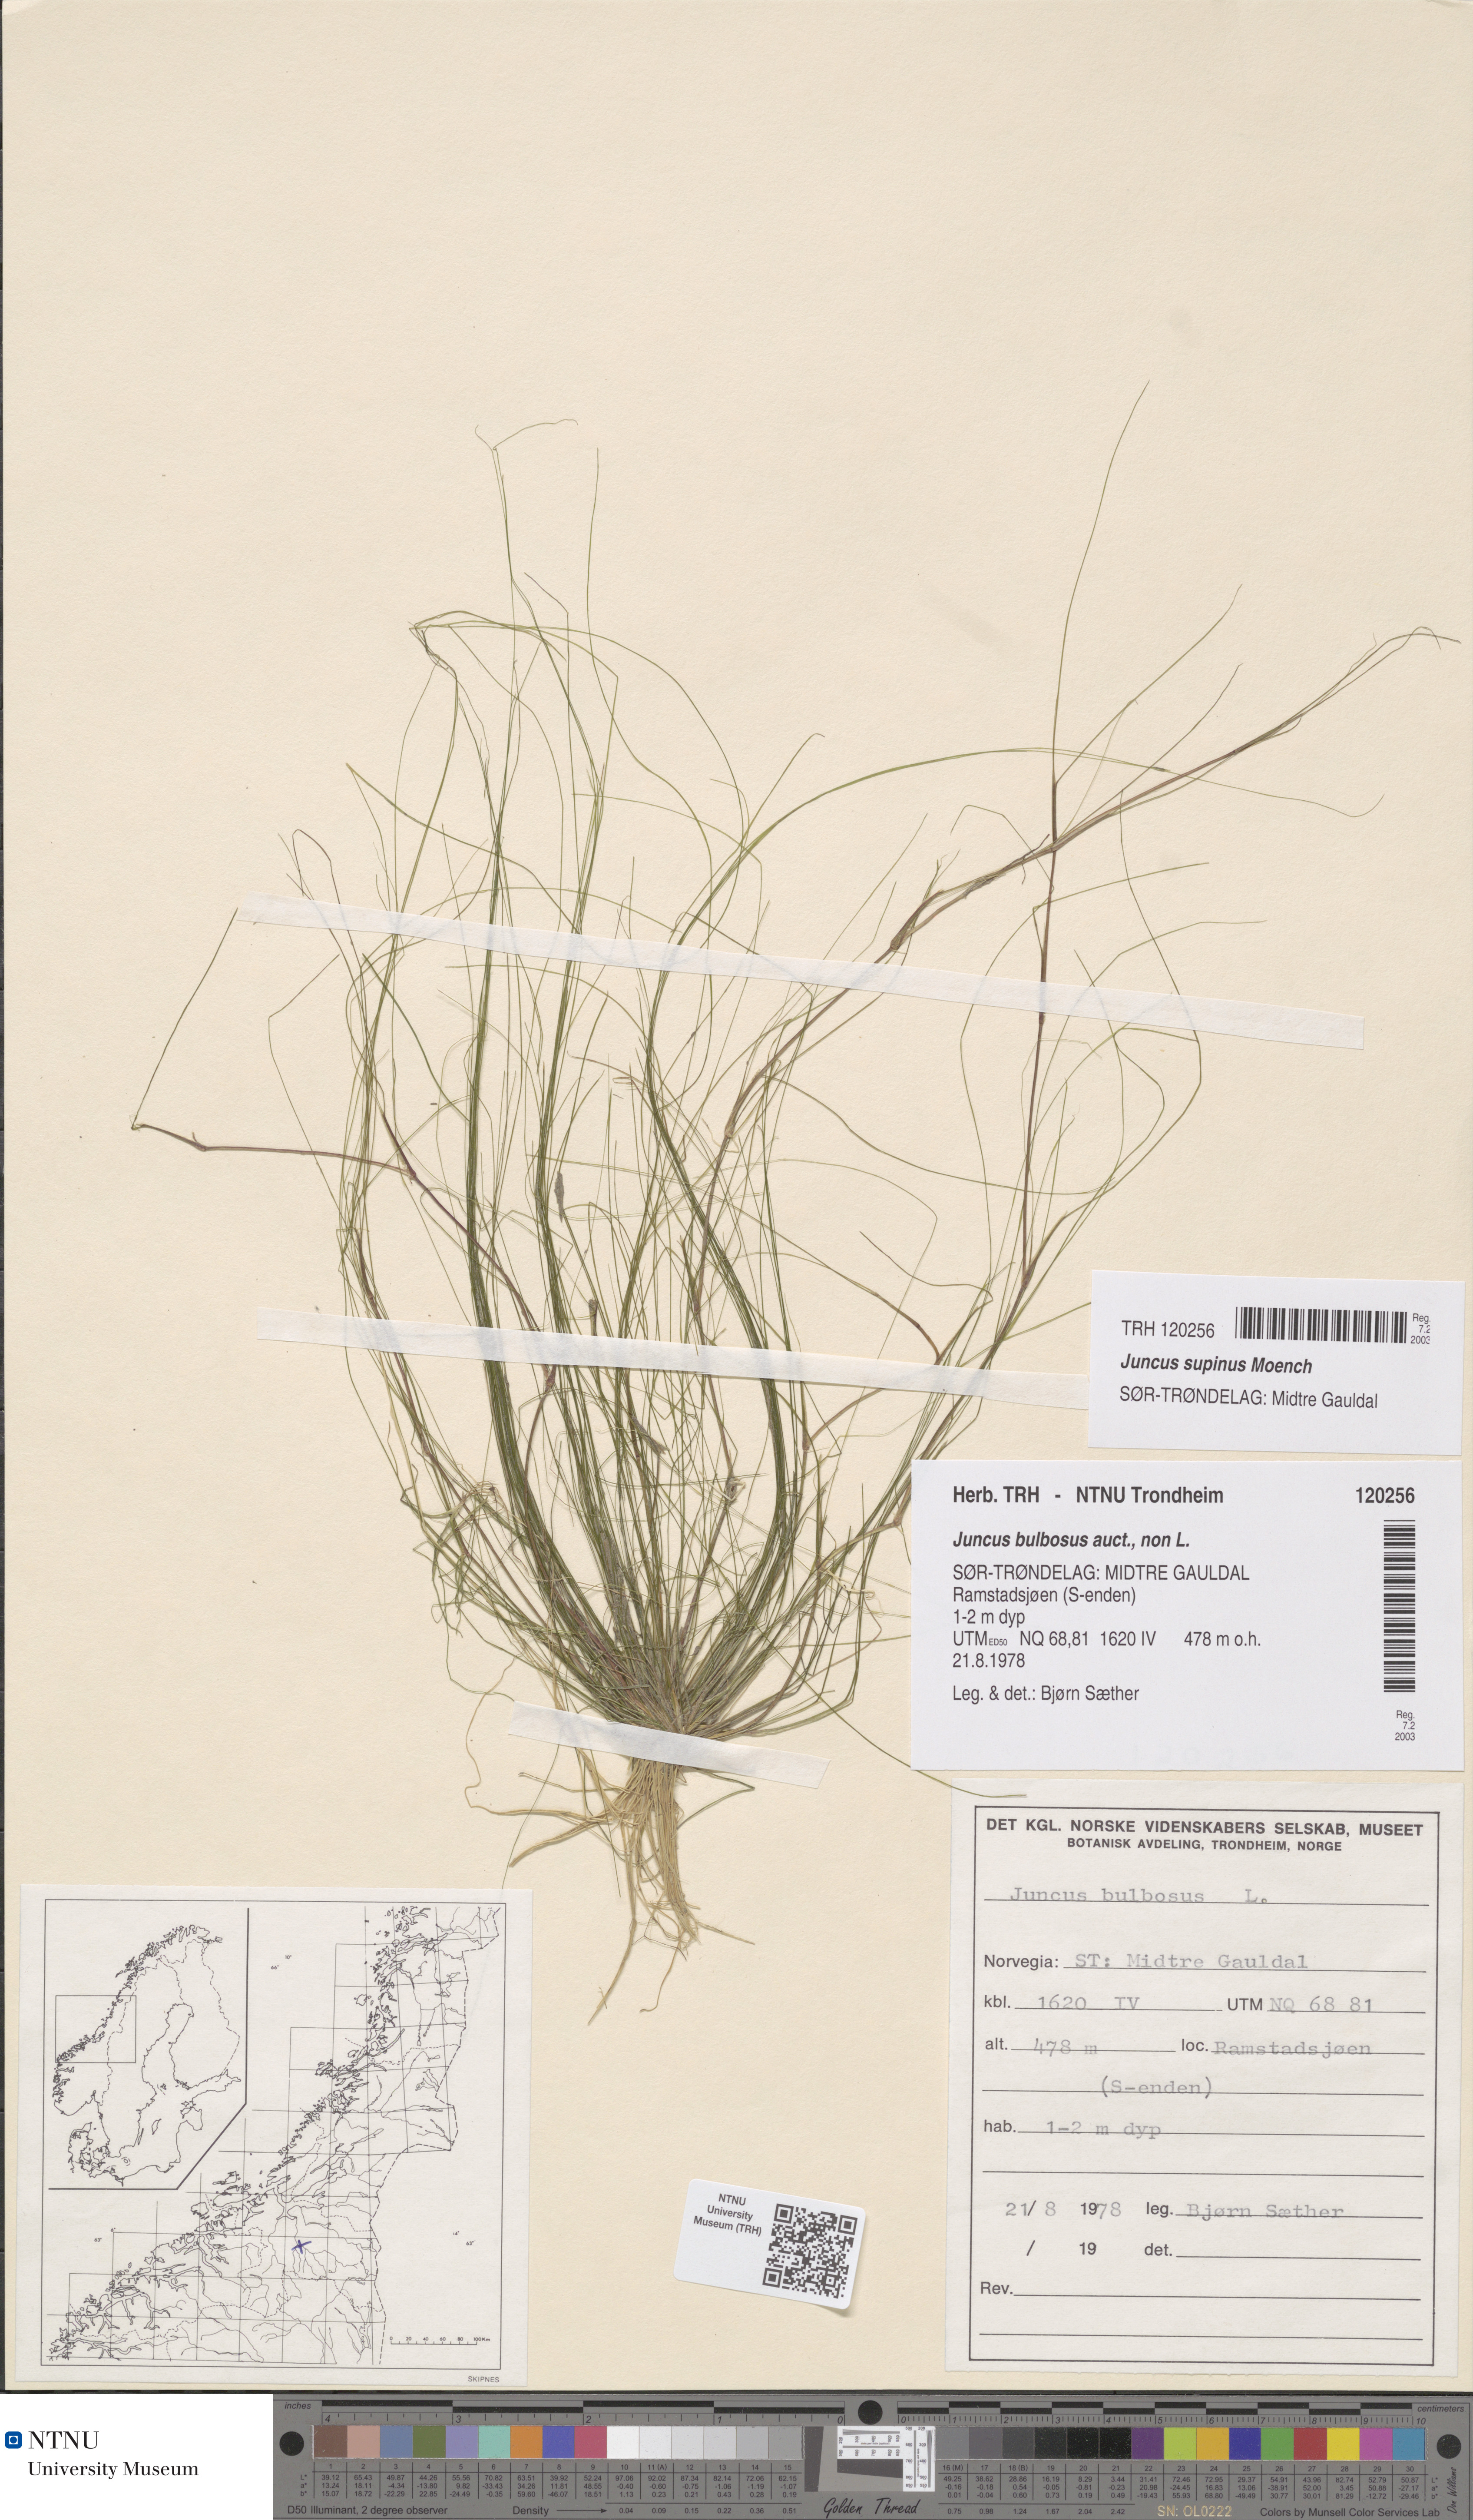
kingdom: Plantae
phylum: Tracheophyta
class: Liliopsida
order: Poales
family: Juncaceae
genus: Juncus
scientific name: Juncus bulbosus
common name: Bulbous rush
